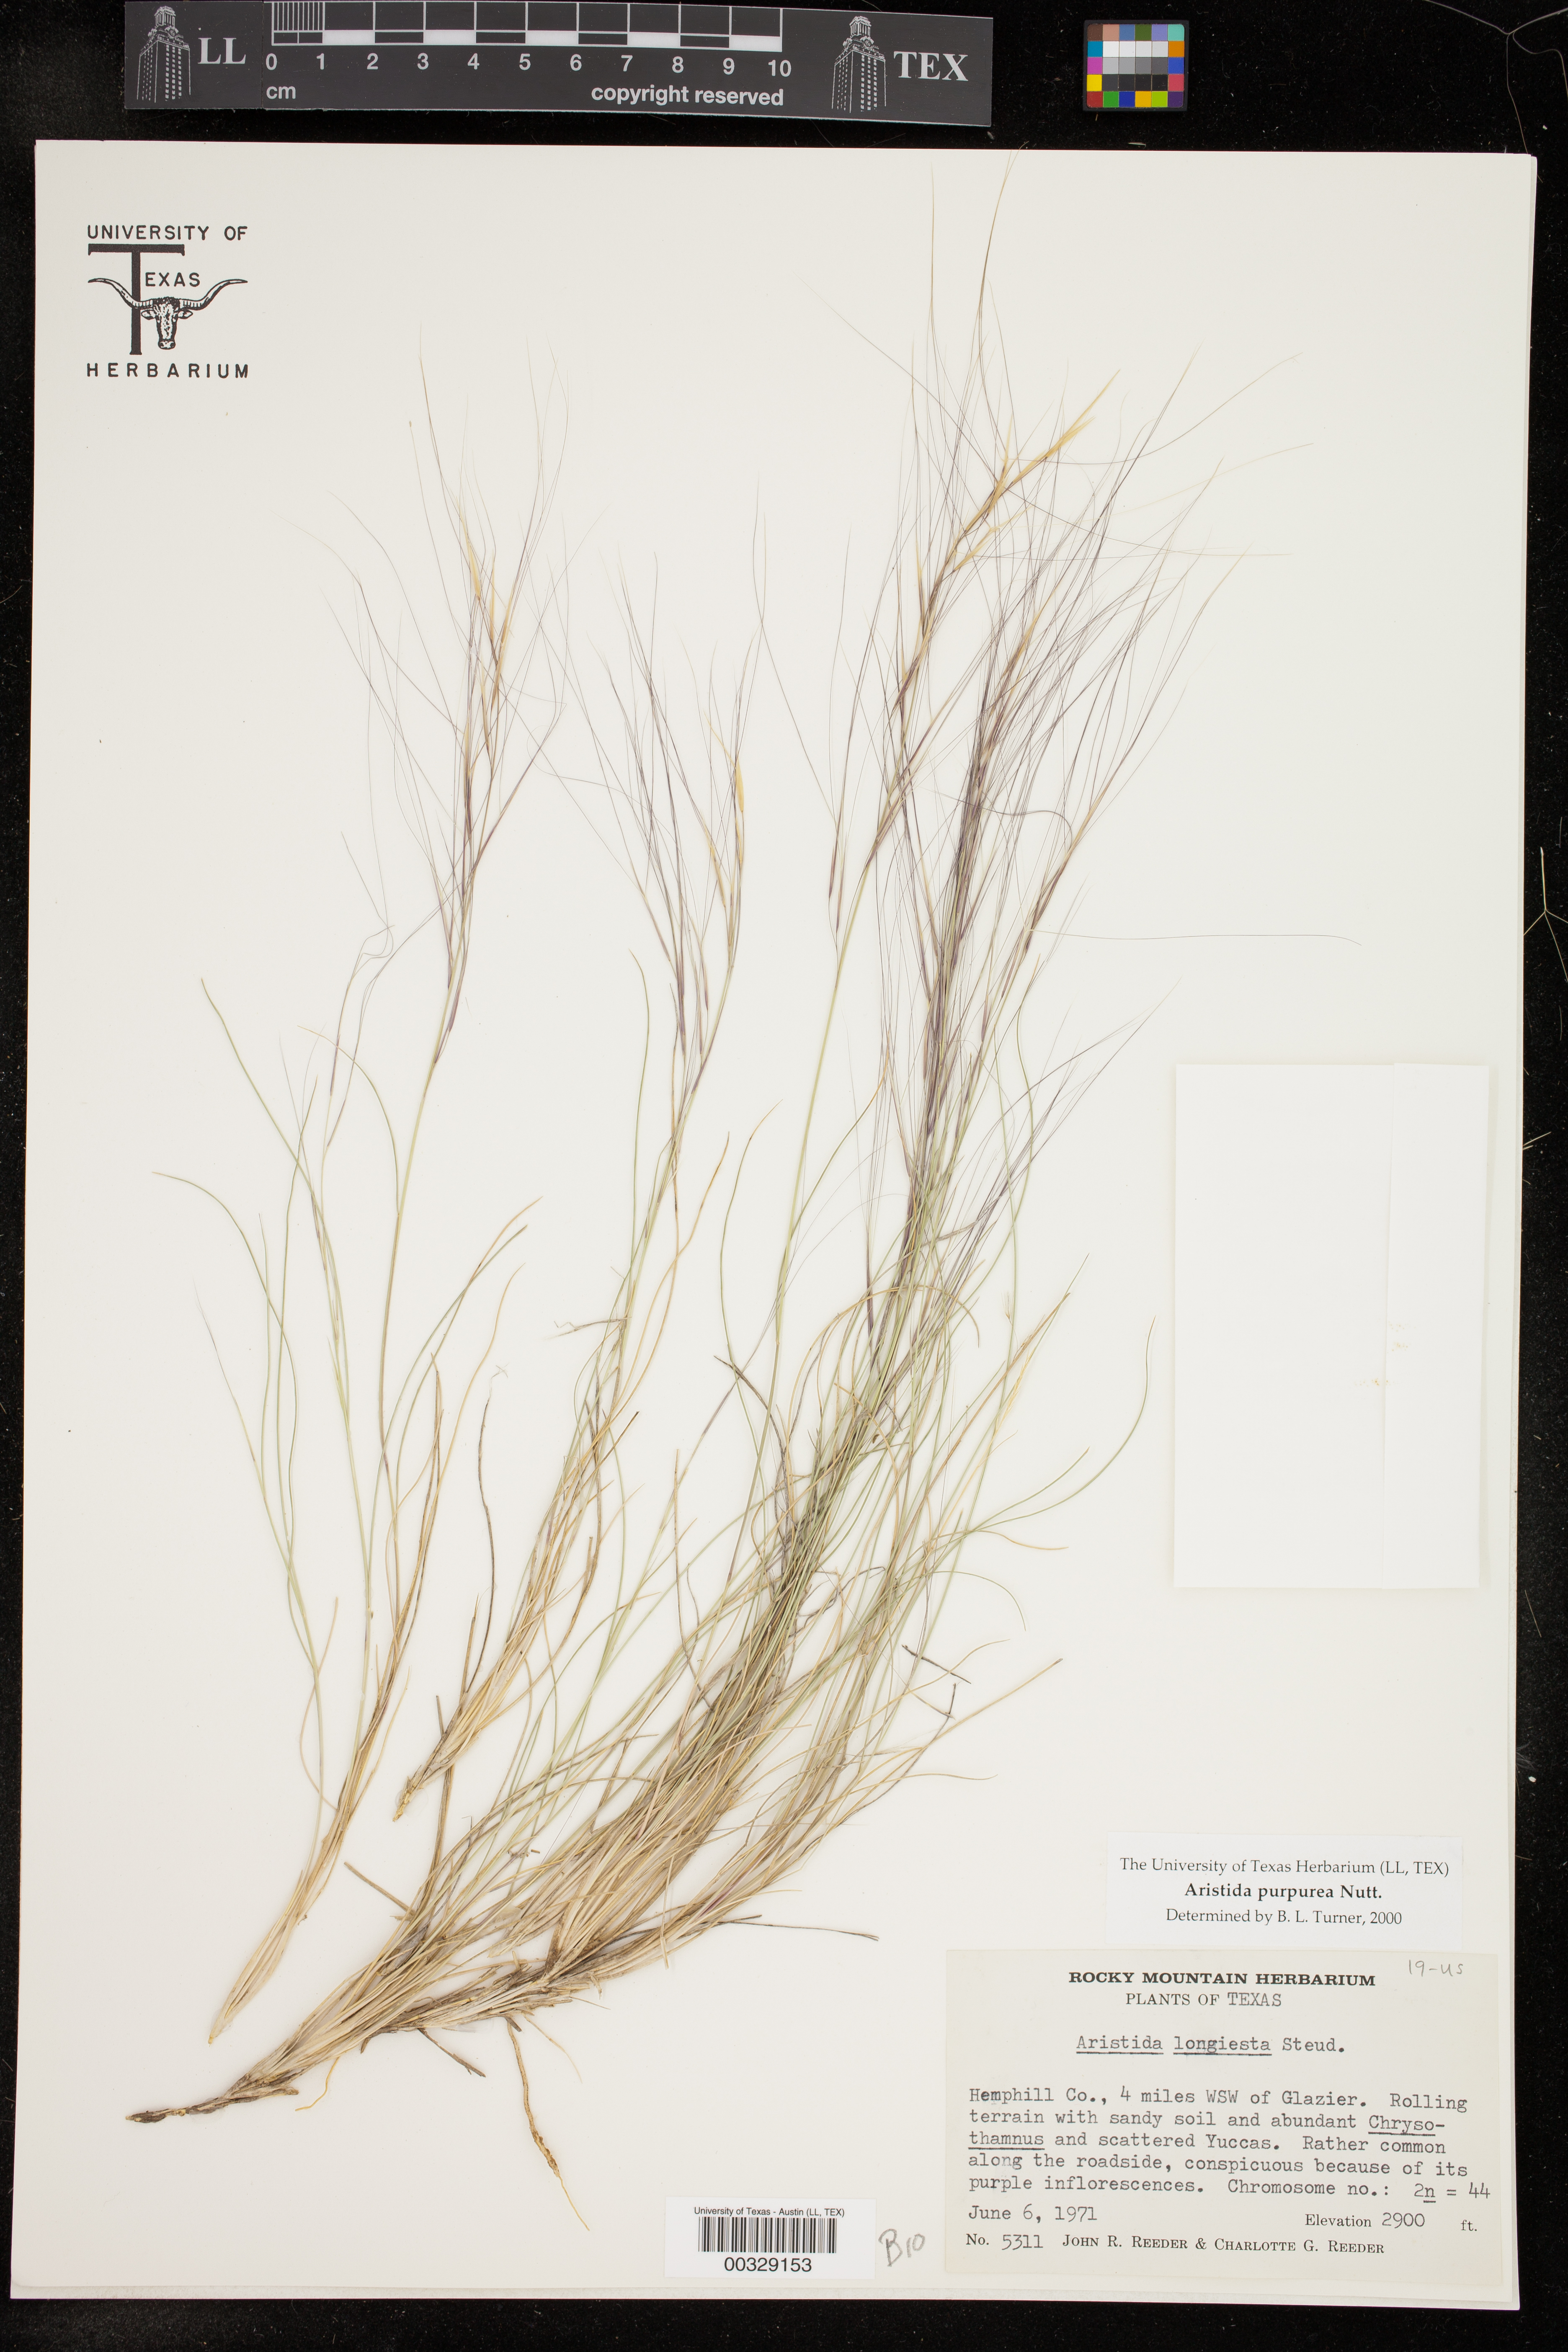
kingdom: Plantae
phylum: Tracheophyta
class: Liliopsida
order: Poales
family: Poaceae
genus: Aristida
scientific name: Aristida purpurea
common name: Purple threeawn
